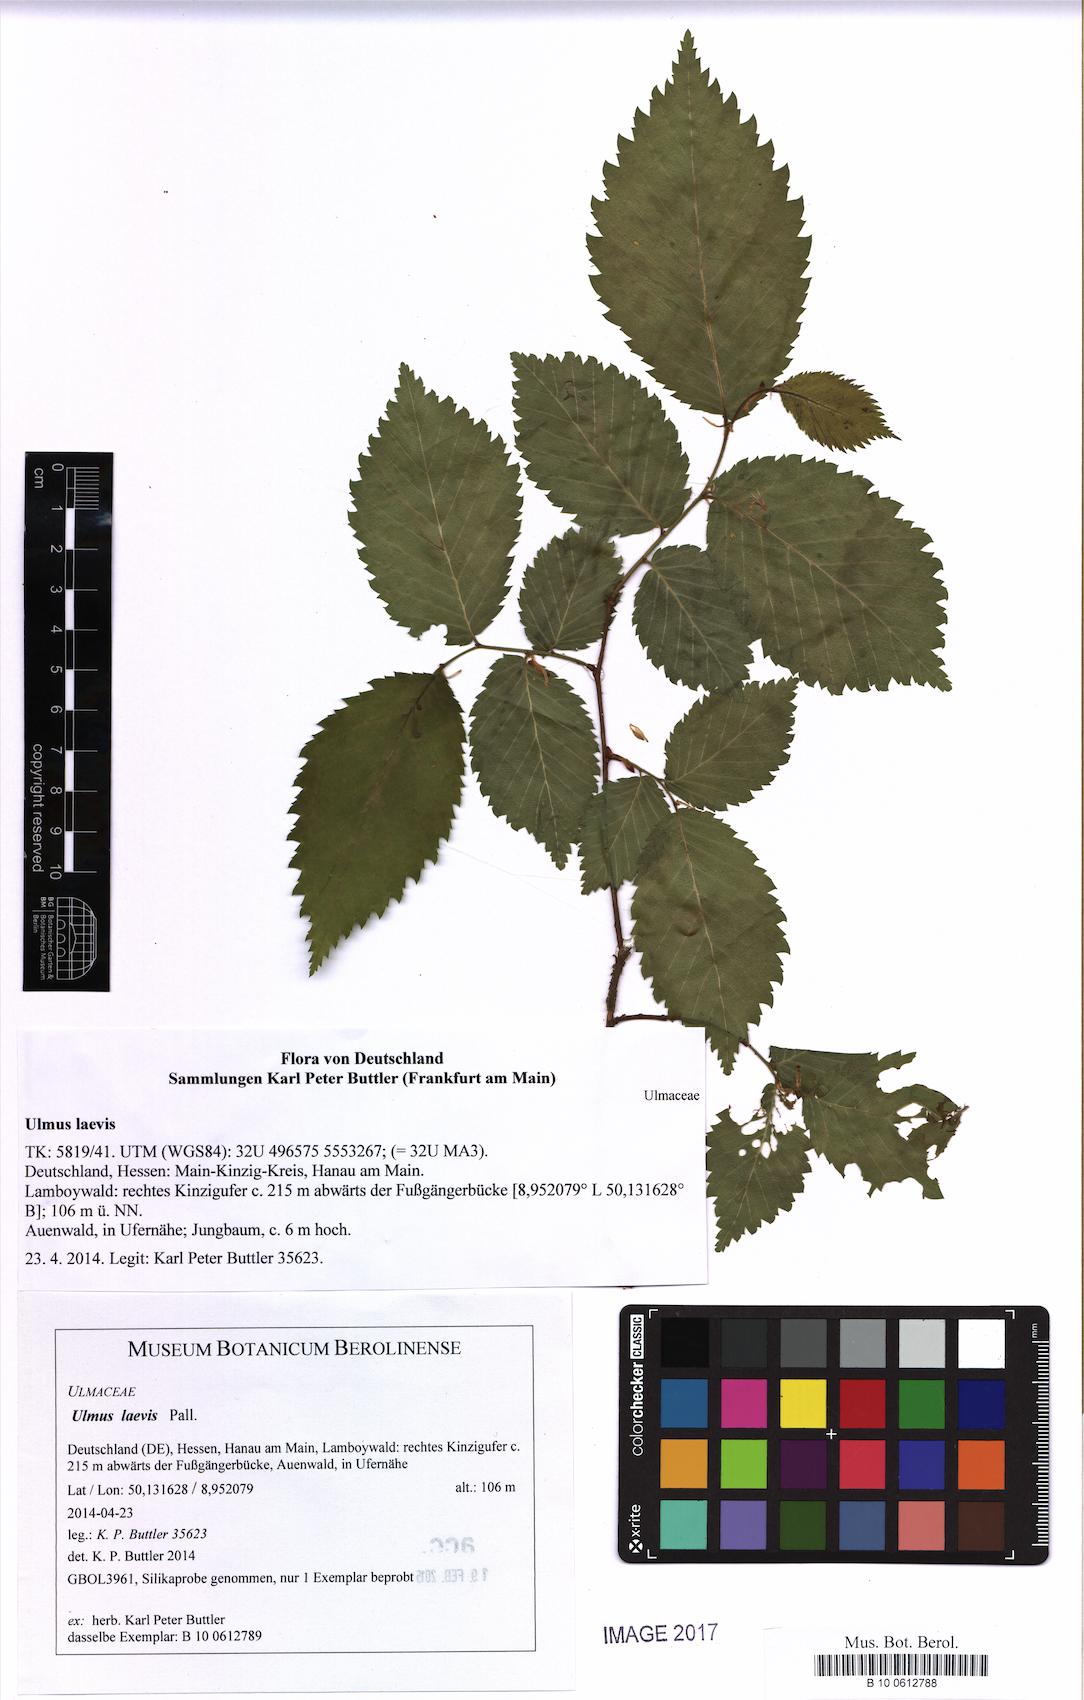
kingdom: Plantae
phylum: Tracheophyta
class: Magnoliopsida
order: Rosales
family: Ulmaceae
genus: Ulmus
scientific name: Ulmus laevis
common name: European white-elm
